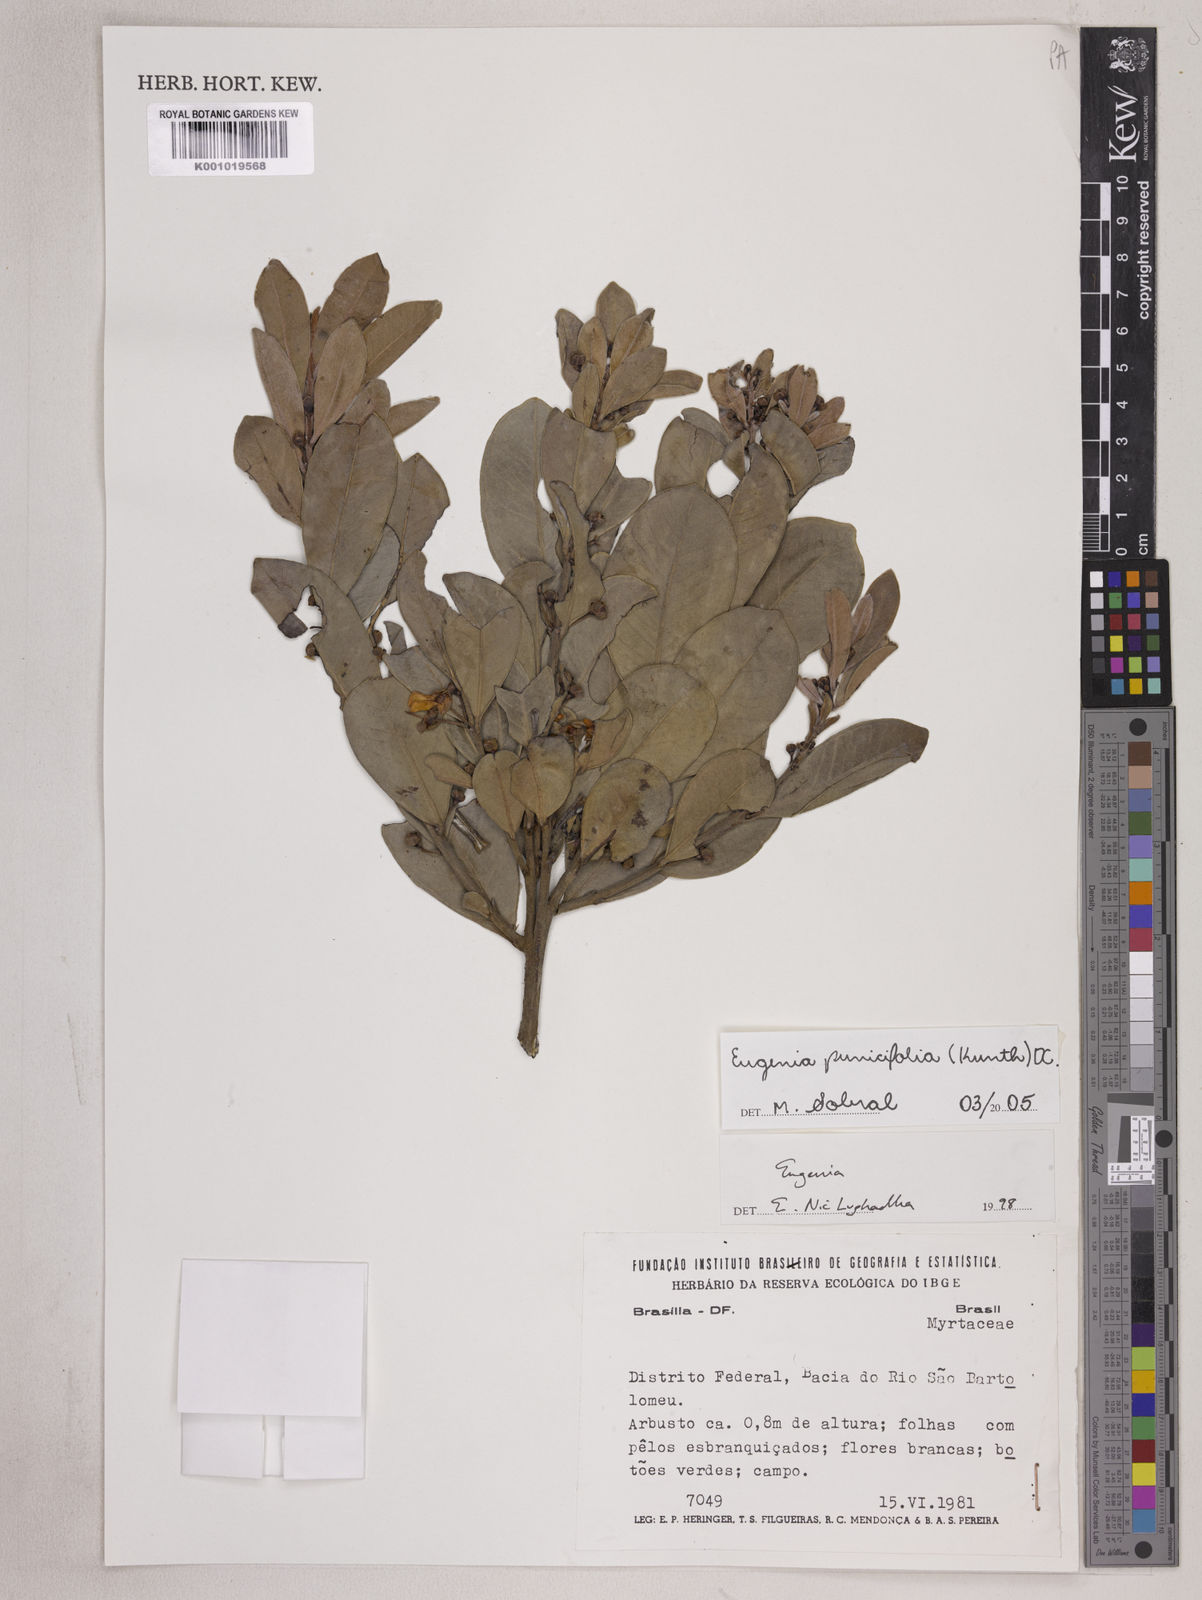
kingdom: Plantae
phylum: Tracheophyta
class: Magnoliopsida
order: Myrtales
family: Myrtaceae
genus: Eugenia
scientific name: Eugenia punicifolia
